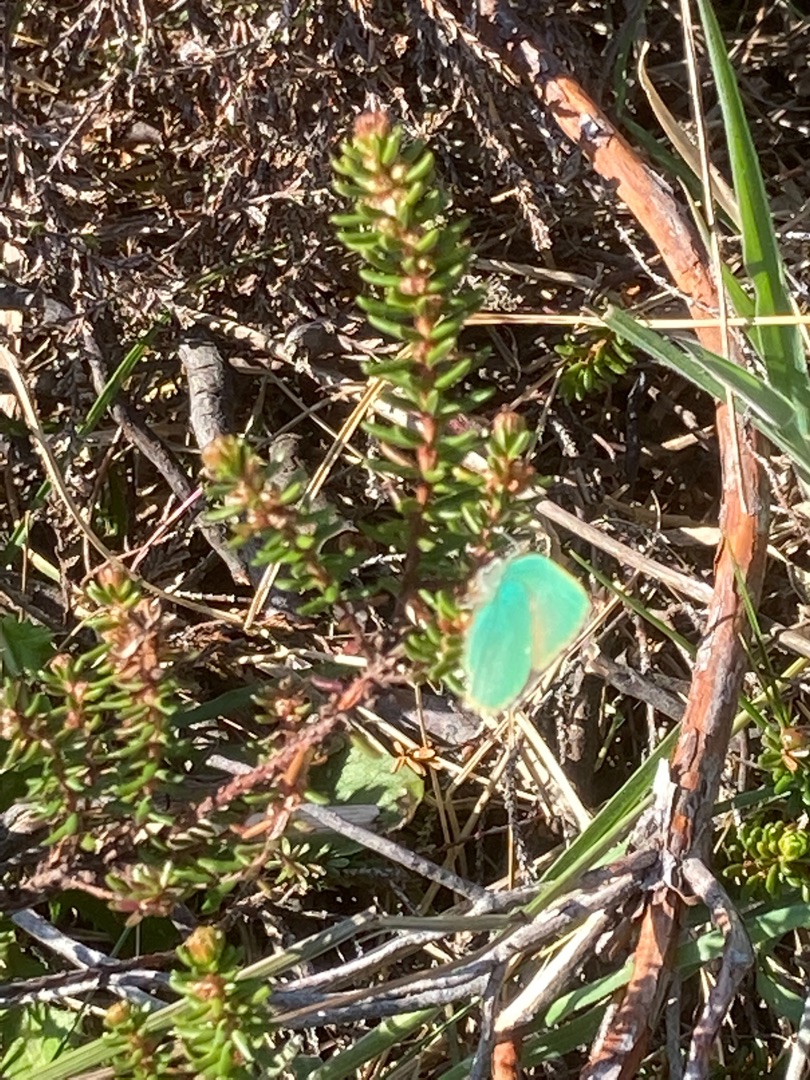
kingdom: Animalia
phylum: Arthropoda
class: Insecta
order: Lepidoptera
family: Lycaenidae
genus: Callophrys
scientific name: Callophrys rubi
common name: Grøn busksommerfugl
